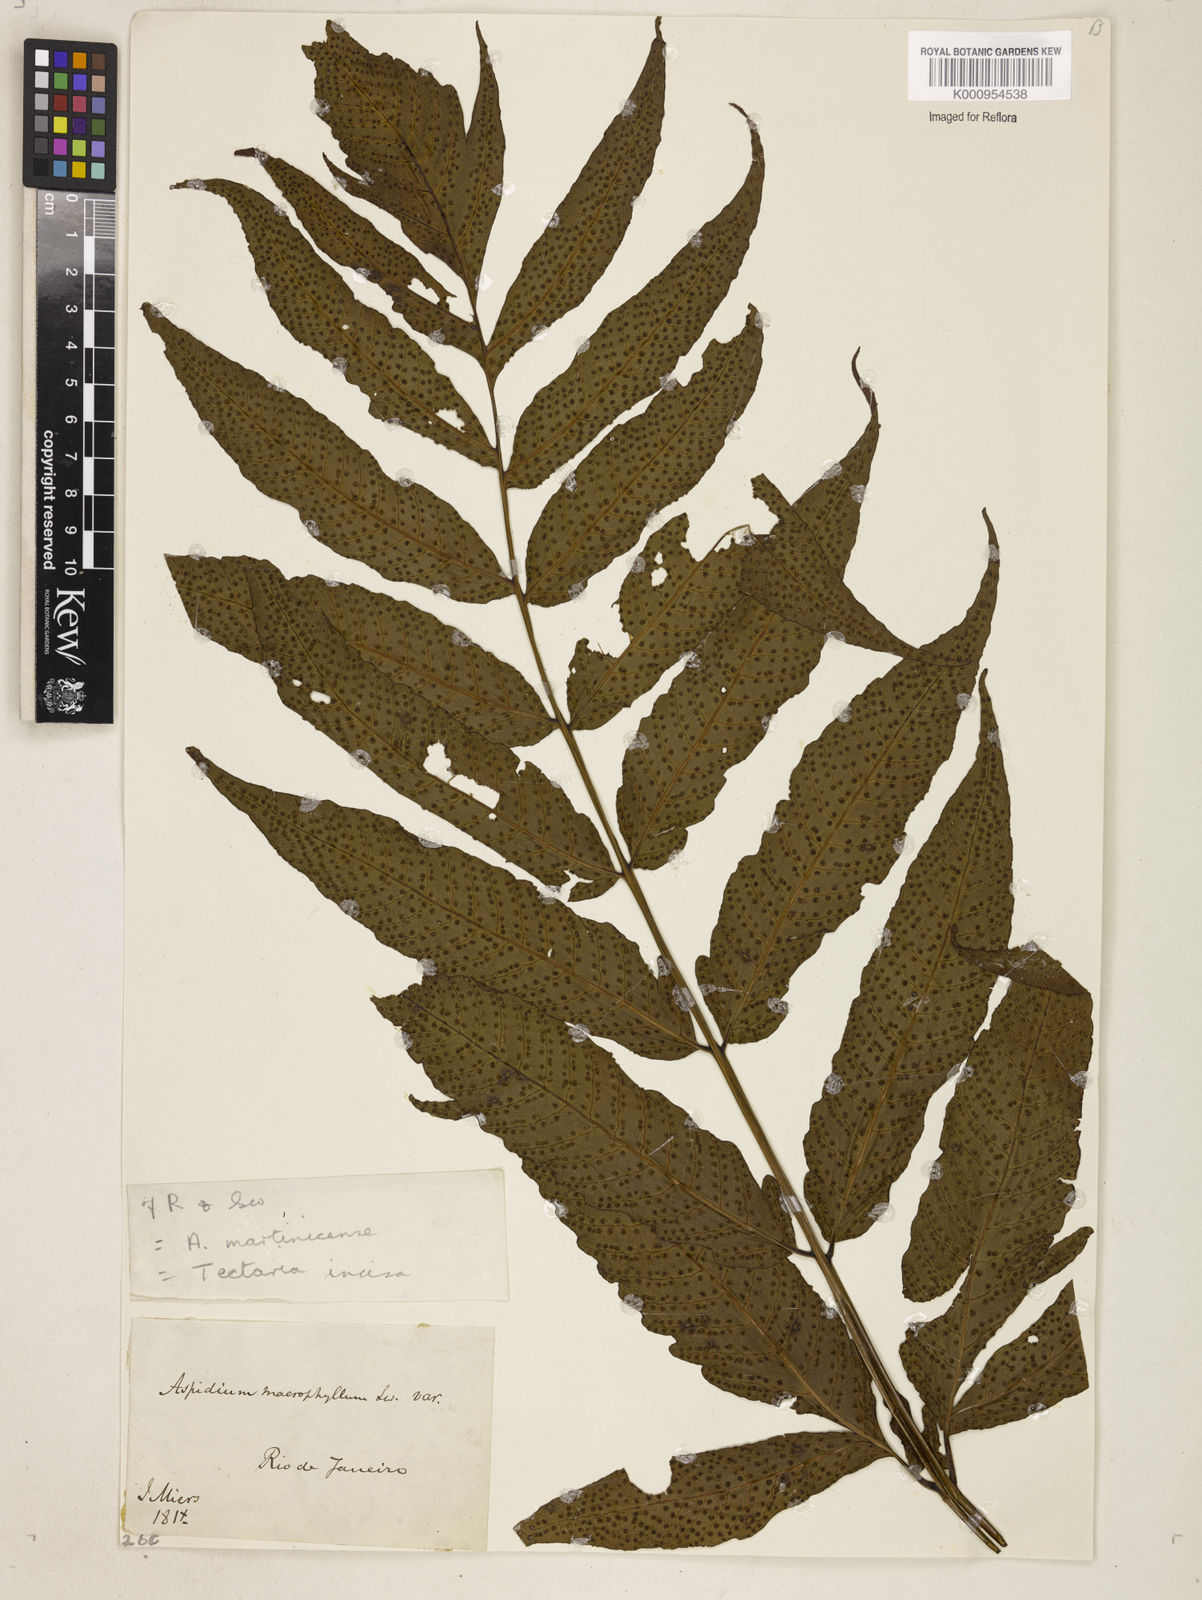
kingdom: Plantae
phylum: Tracheophyta
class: Polypodiopsida
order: Polypodiales
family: Tectariaceae
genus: Tectaria
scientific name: Tectaria incisa
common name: Incised halberd fern
